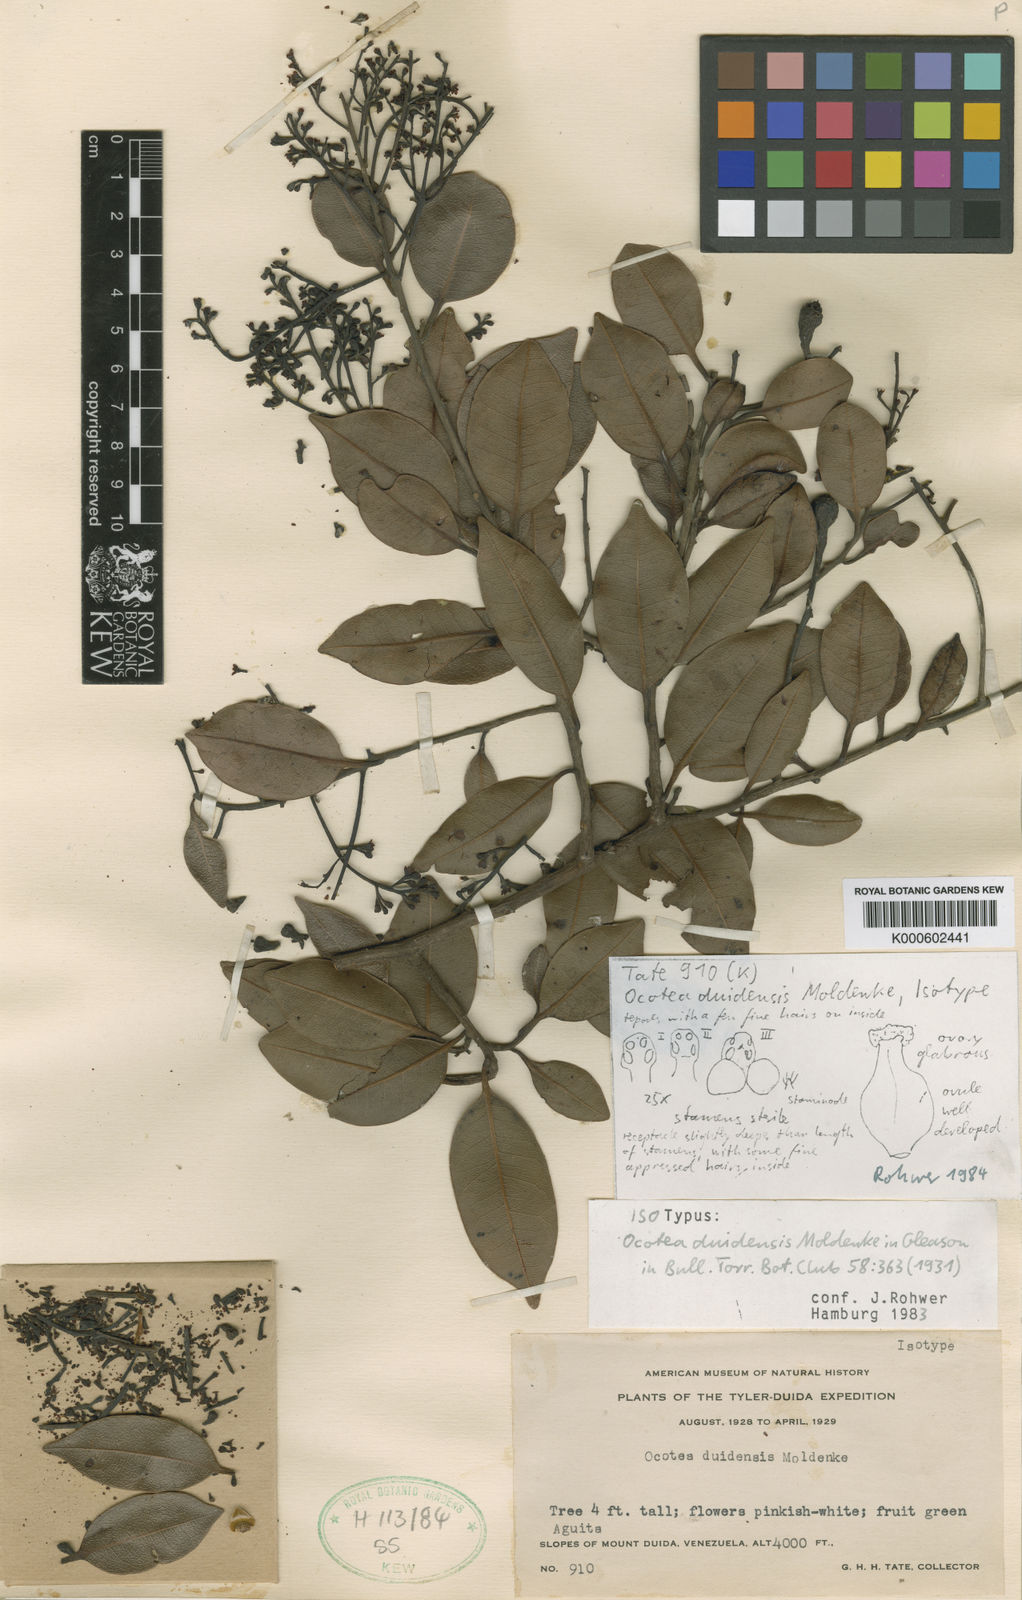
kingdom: Plantae
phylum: Tracheophyta
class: Magnoliopsida
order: Laurales
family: Lauraceae
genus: Ocotea
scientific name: Ocotea duidensis
